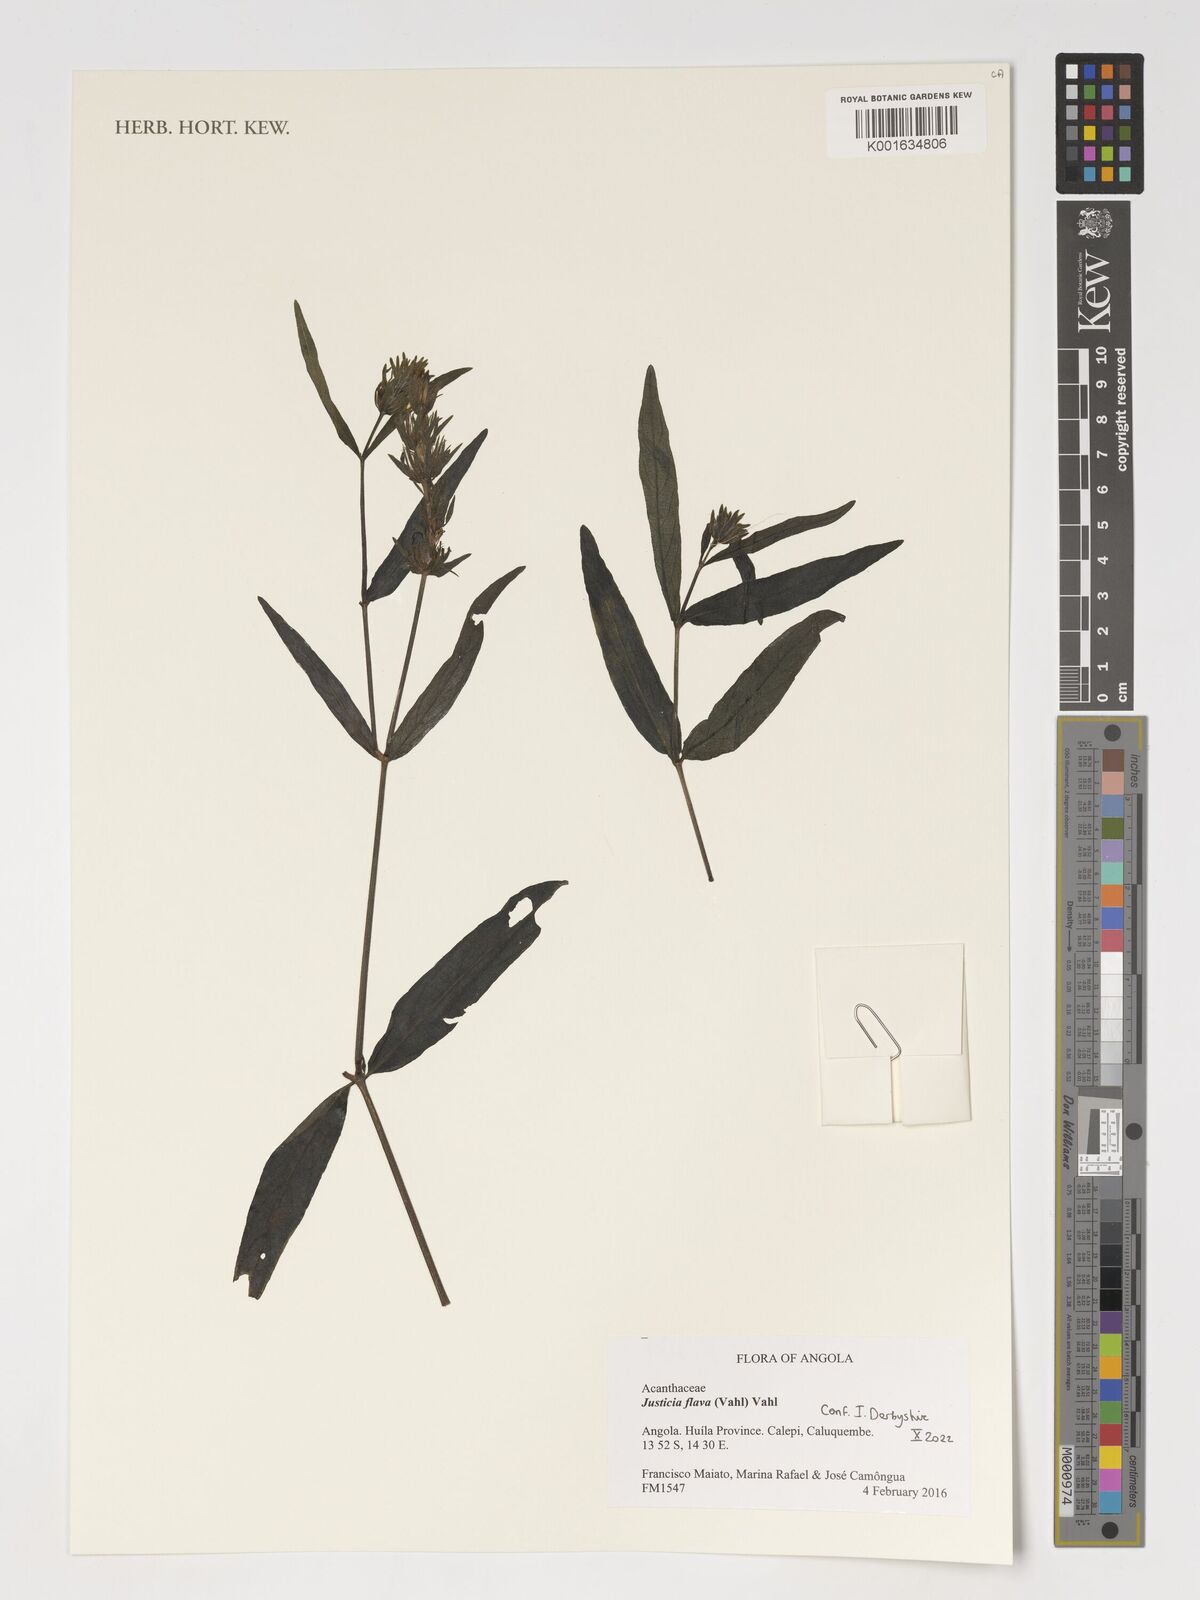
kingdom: Plantae
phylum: Tracheophyta
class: Magnoliopsida
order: Lamiales
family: Acanthaceae
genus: Justicia
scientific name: Justicia flava
